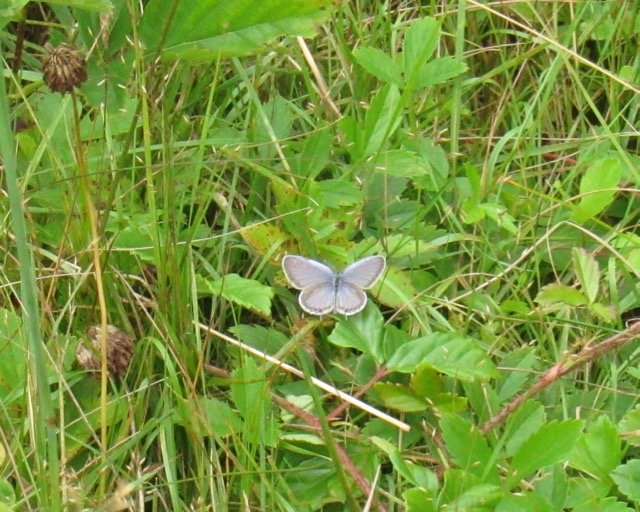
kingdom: Animalia
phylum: Arthropoda
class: Insecta
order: Lepidoptera
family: Lycaenidae
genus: Elkalyce
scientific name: Elkalyce comyntas
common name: Eastern Tailed-Blue
